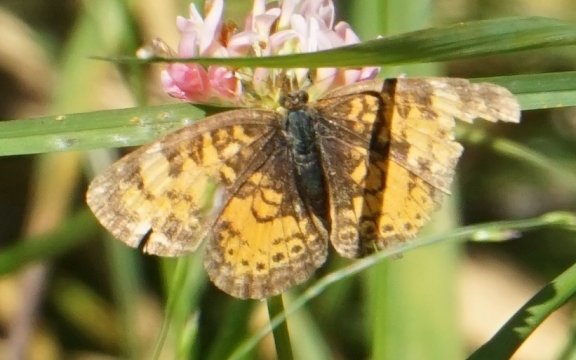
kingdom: Animalia
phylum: Arthropoda
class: Insecta
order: Lepidoptera
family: Nymphalidae
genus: Phyciodes
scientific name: Phyciodes tharos
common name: Northern Crescent
